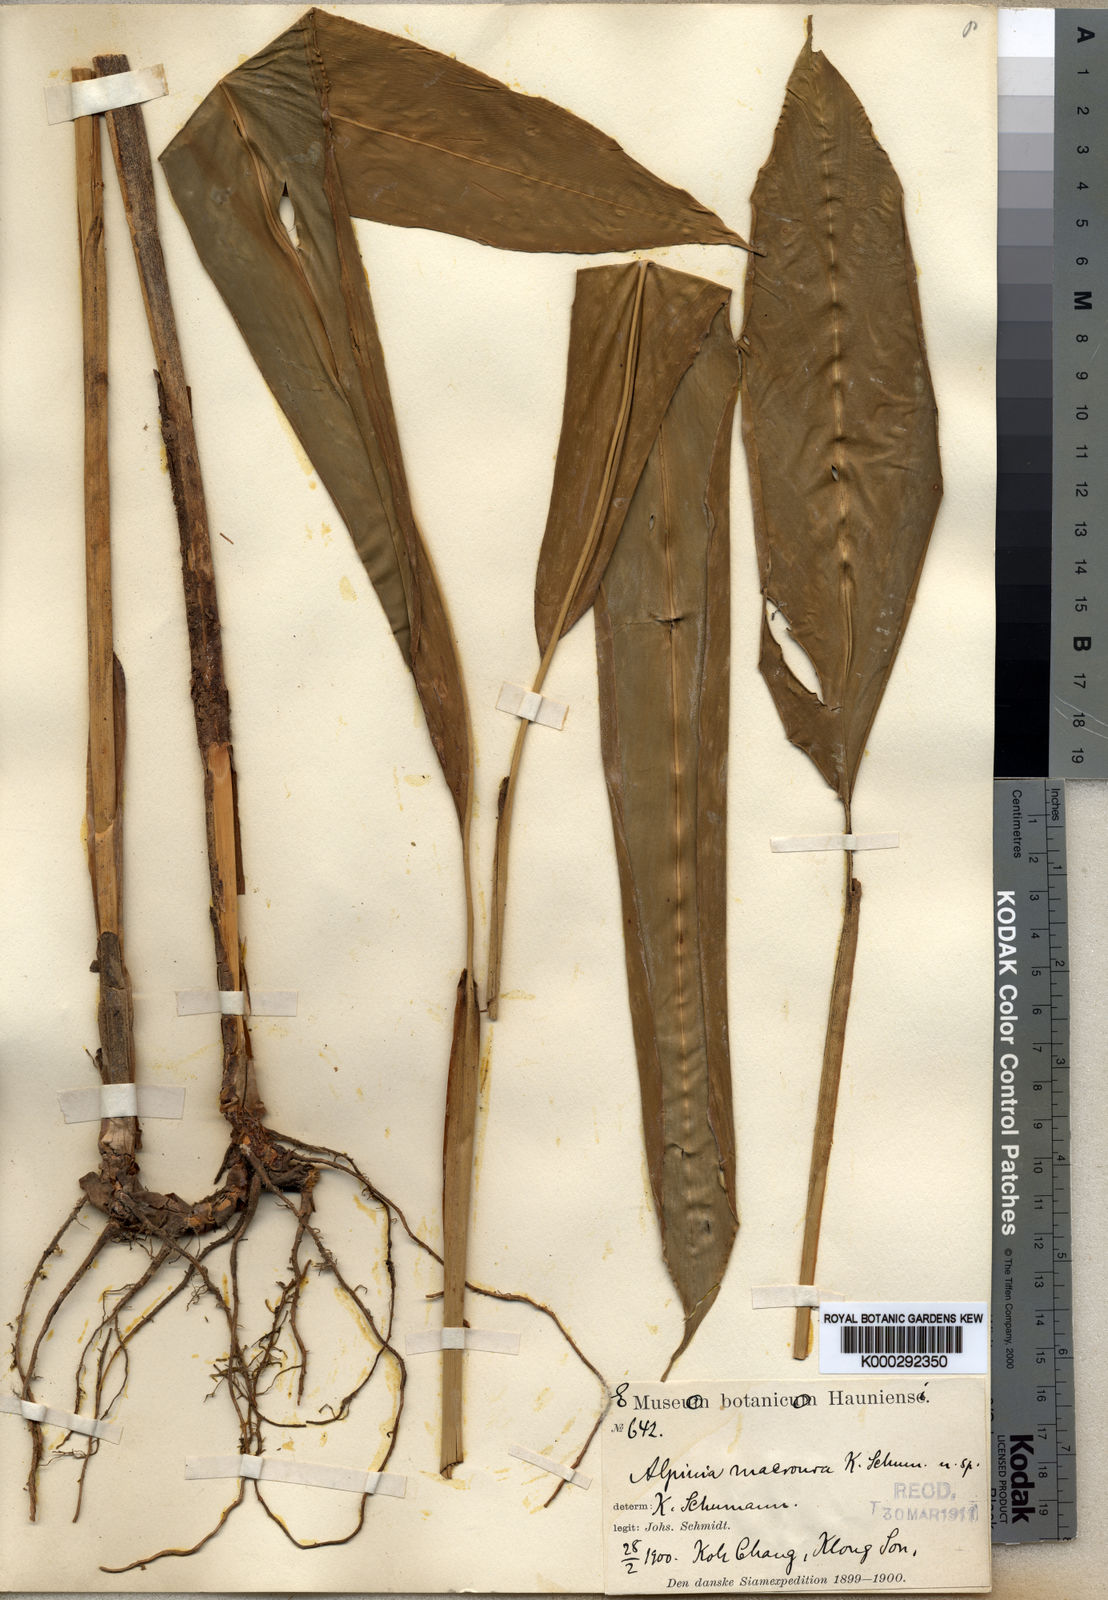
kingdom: Plantae
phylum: Tracheophyta
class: Liliopsida
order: Zingiberales
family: Zingiberaceae
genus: Alpinia
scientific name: Alpinia macroura
